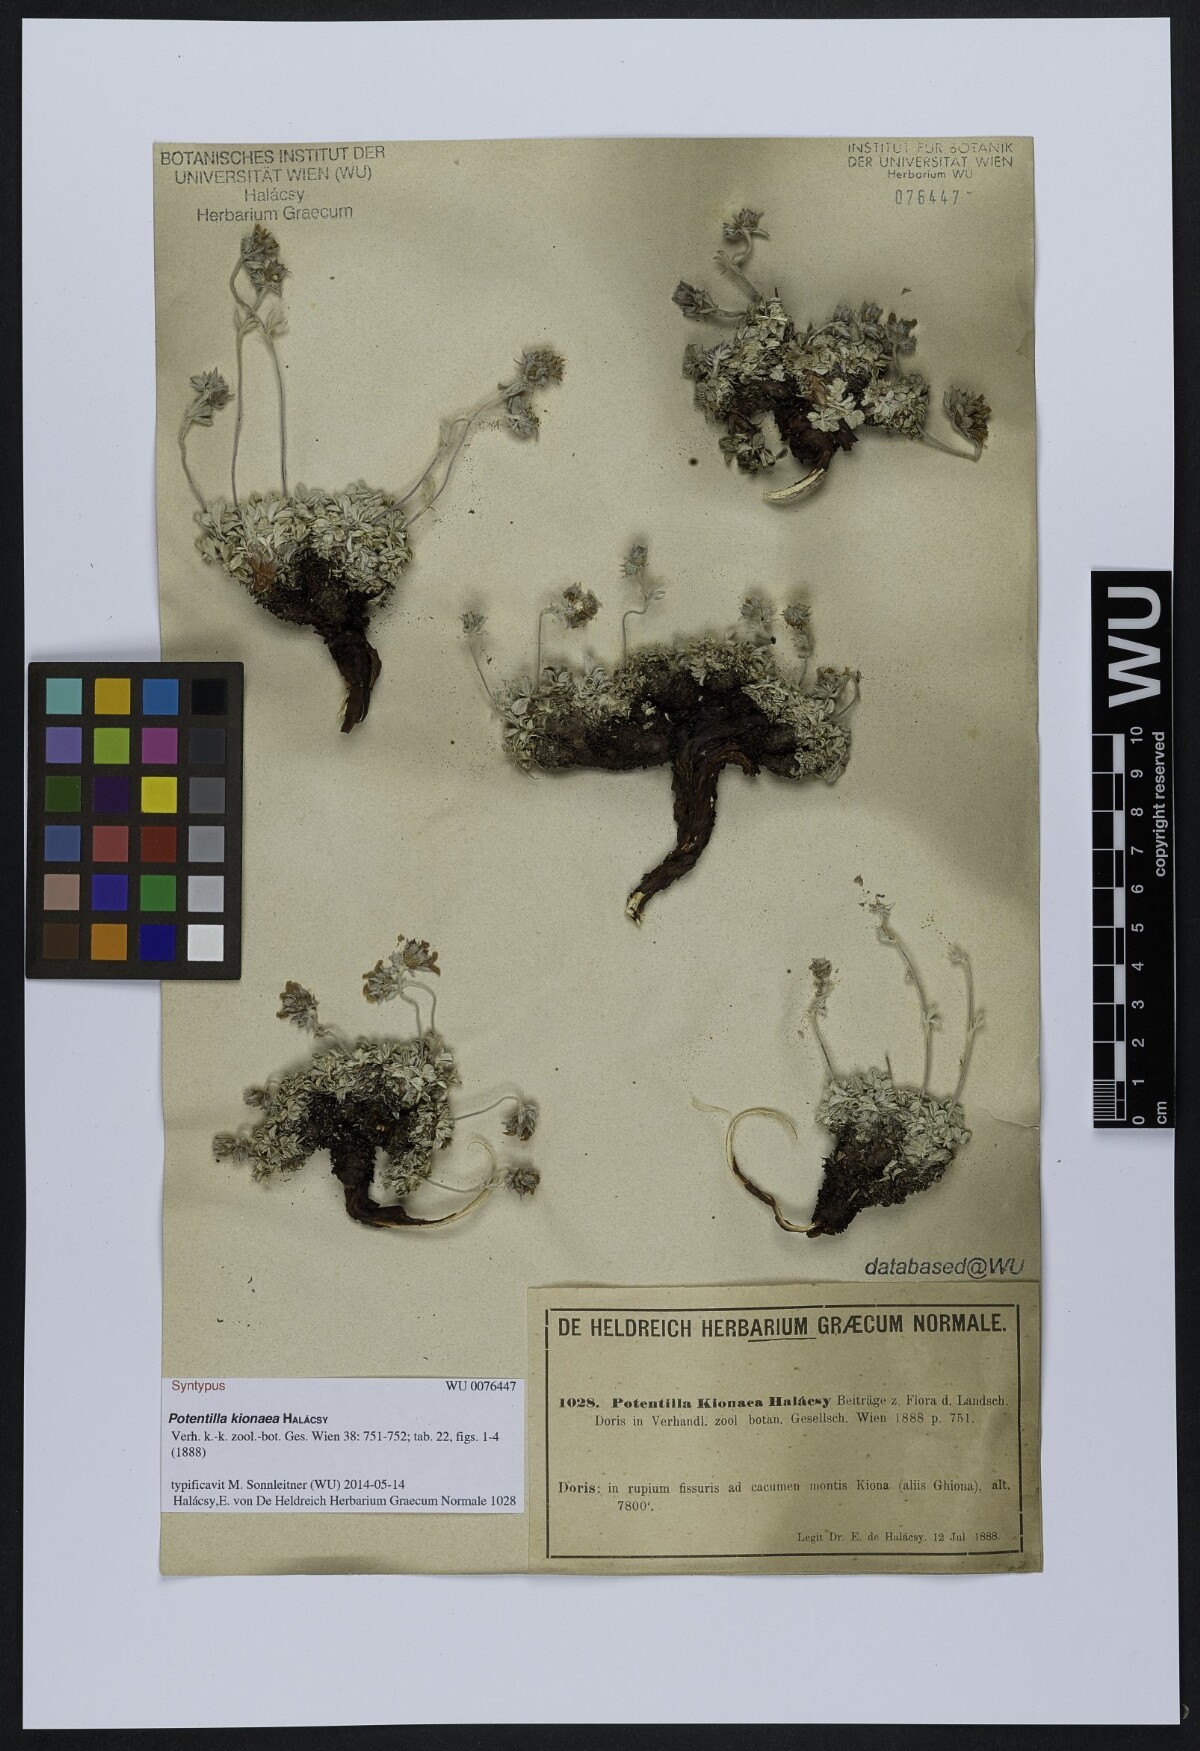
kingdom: Plantae
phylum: Tracheophyta
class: Magnoliopsida
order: Rosales
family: Rosaceae
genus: Potentilla
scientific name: Potentilla kionaea
